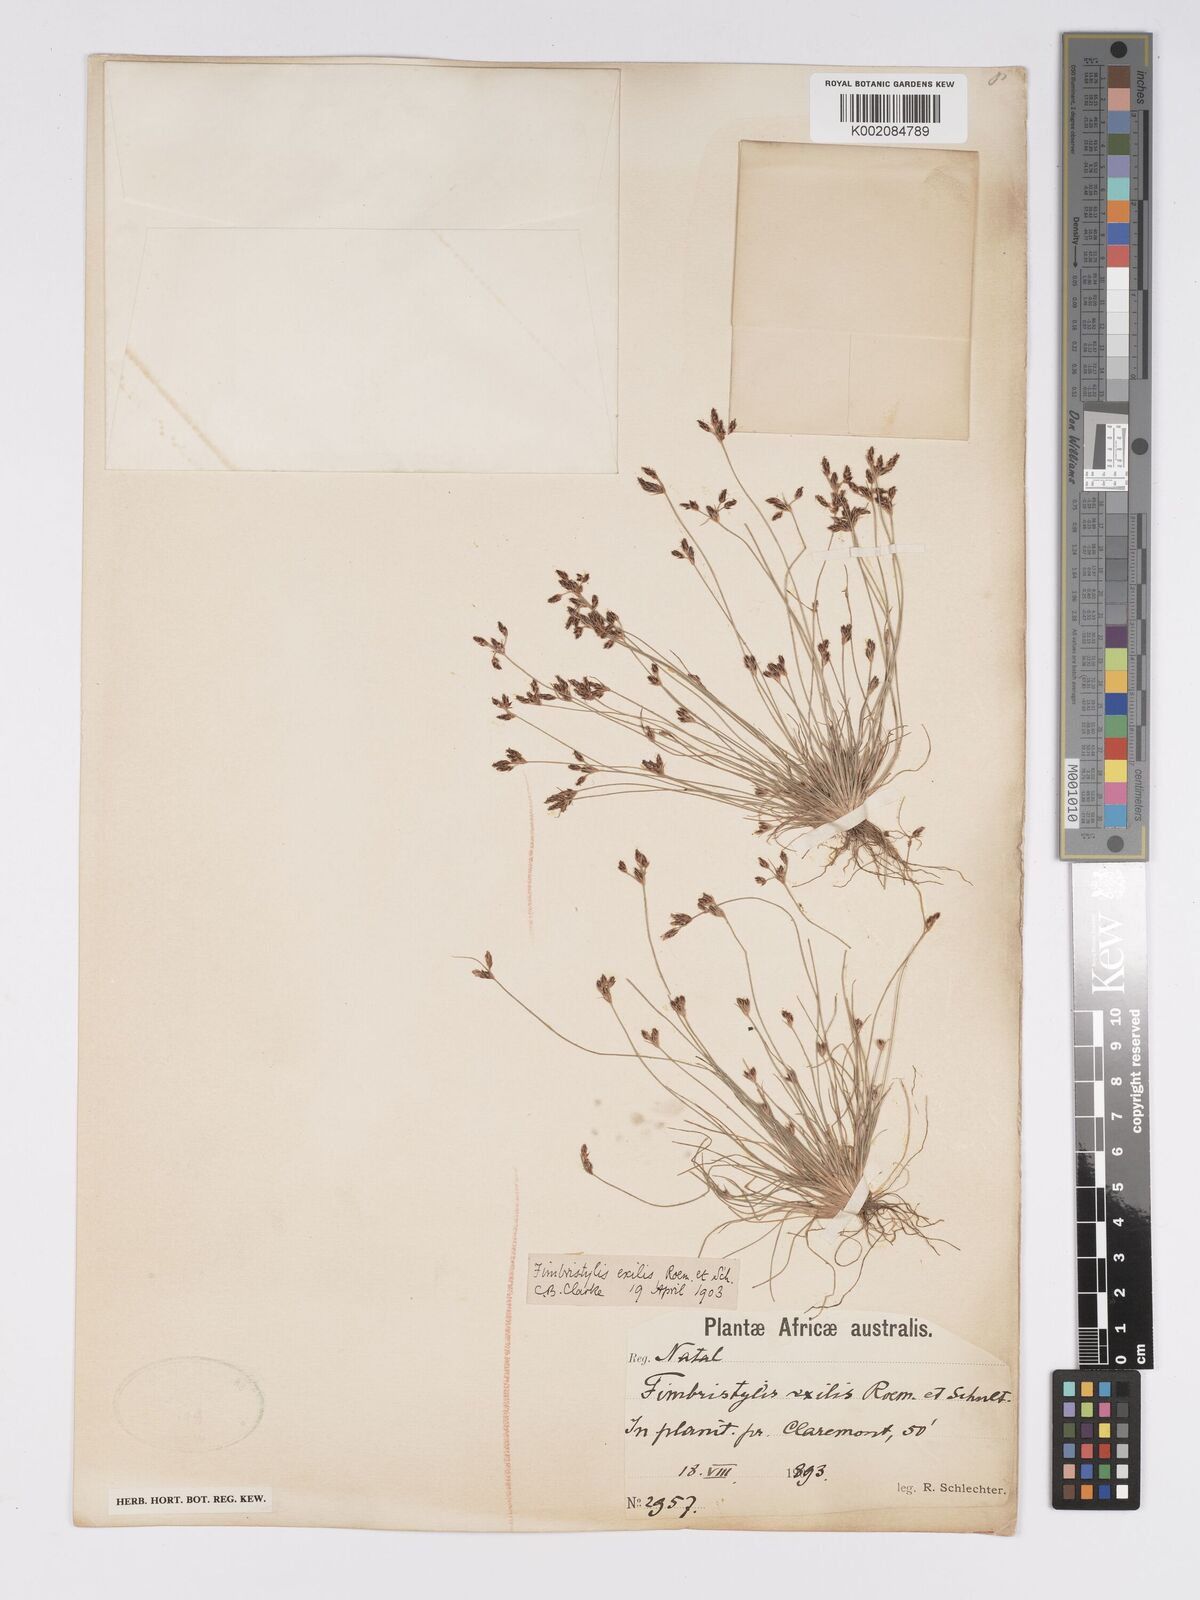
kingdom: Plantae
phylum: Tracheophyta
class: Liliopsida
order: Poales
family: Cyperaceae
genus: Bulbostylis
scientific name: Bulbostylis
